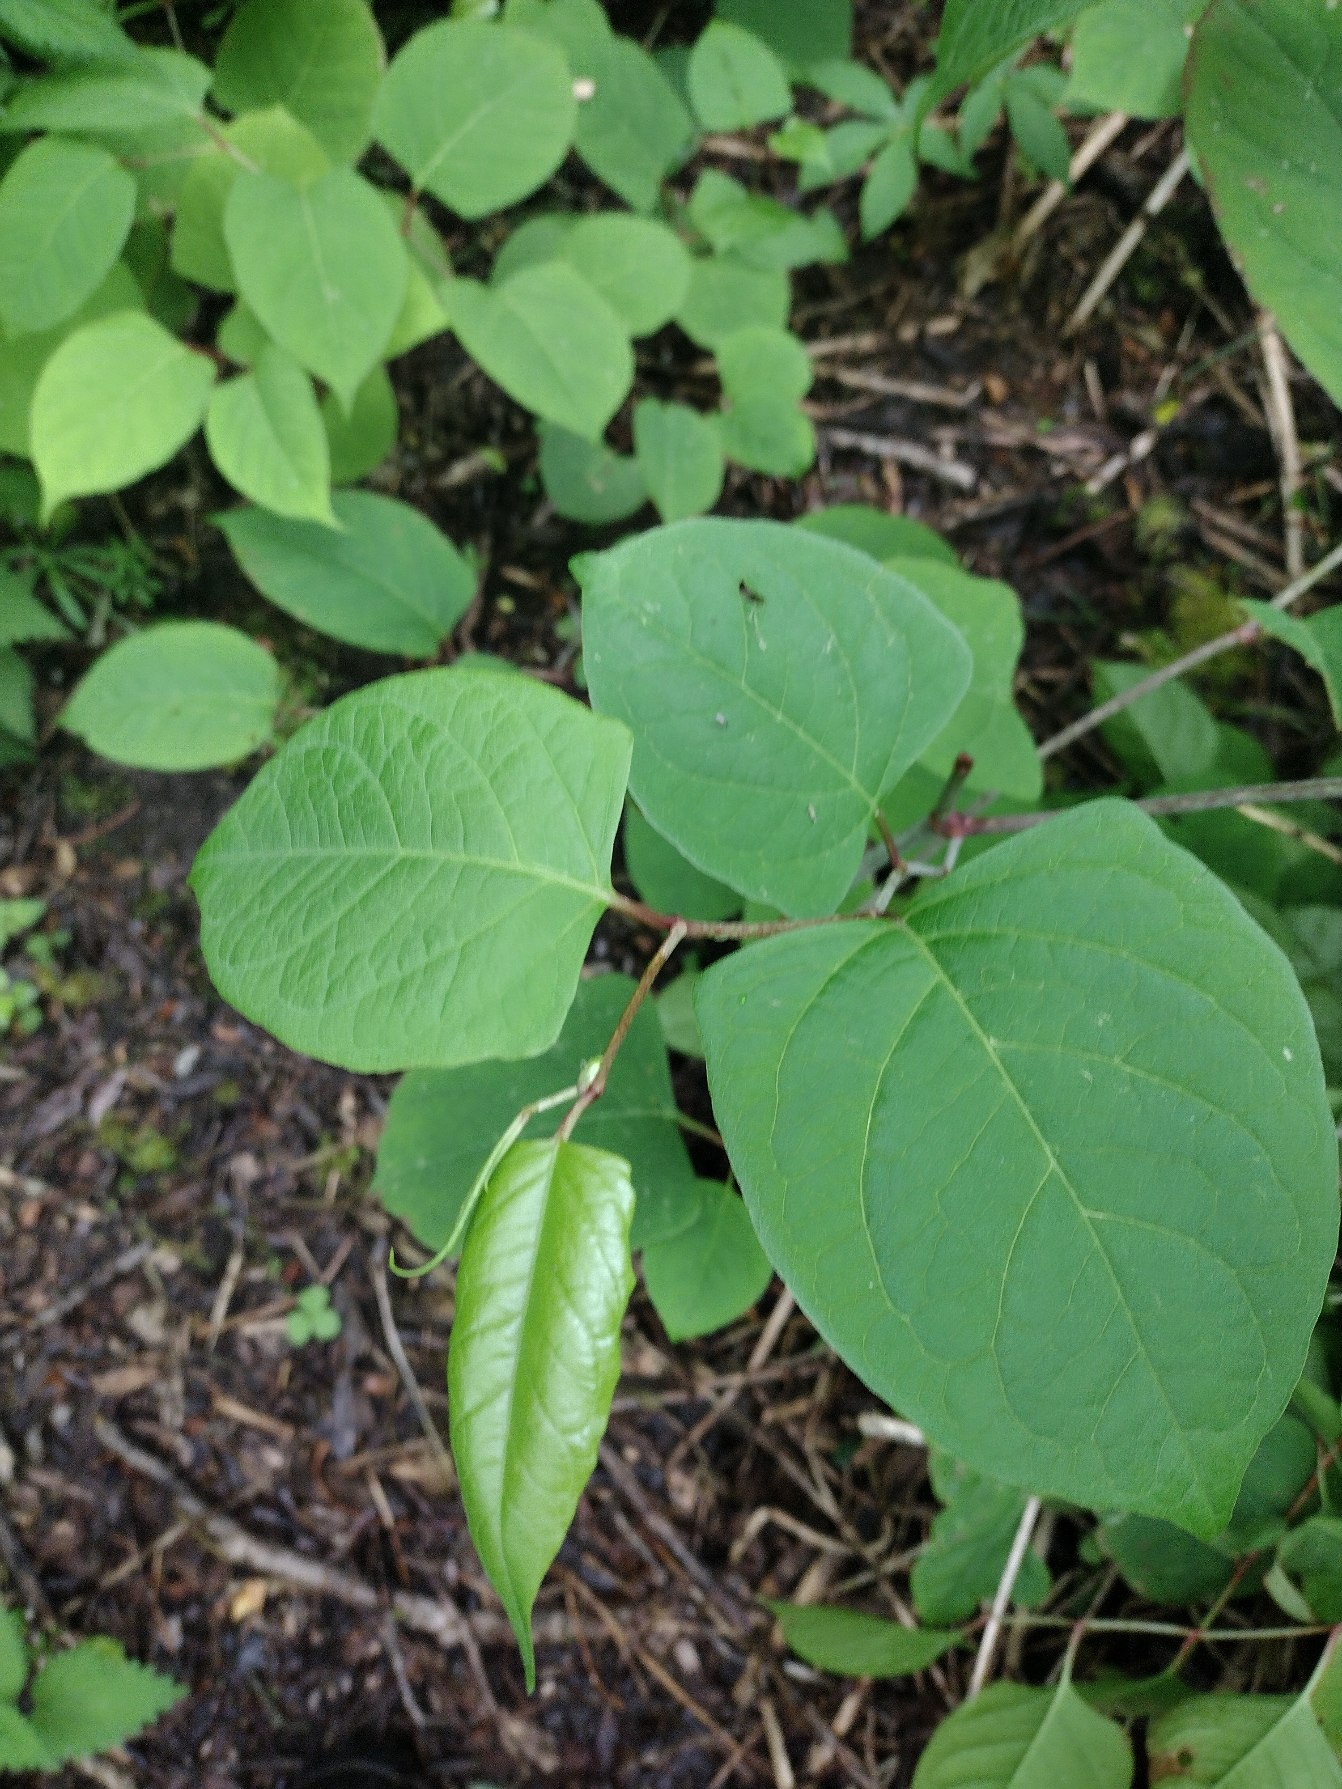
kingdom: Plantae
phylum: Tracheophyta
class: Magnoliopsida
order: Caryophyllales
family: Polygonaceae
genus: Reynoutria
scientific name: Reynoutria japonica
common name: Japan-pileurt
